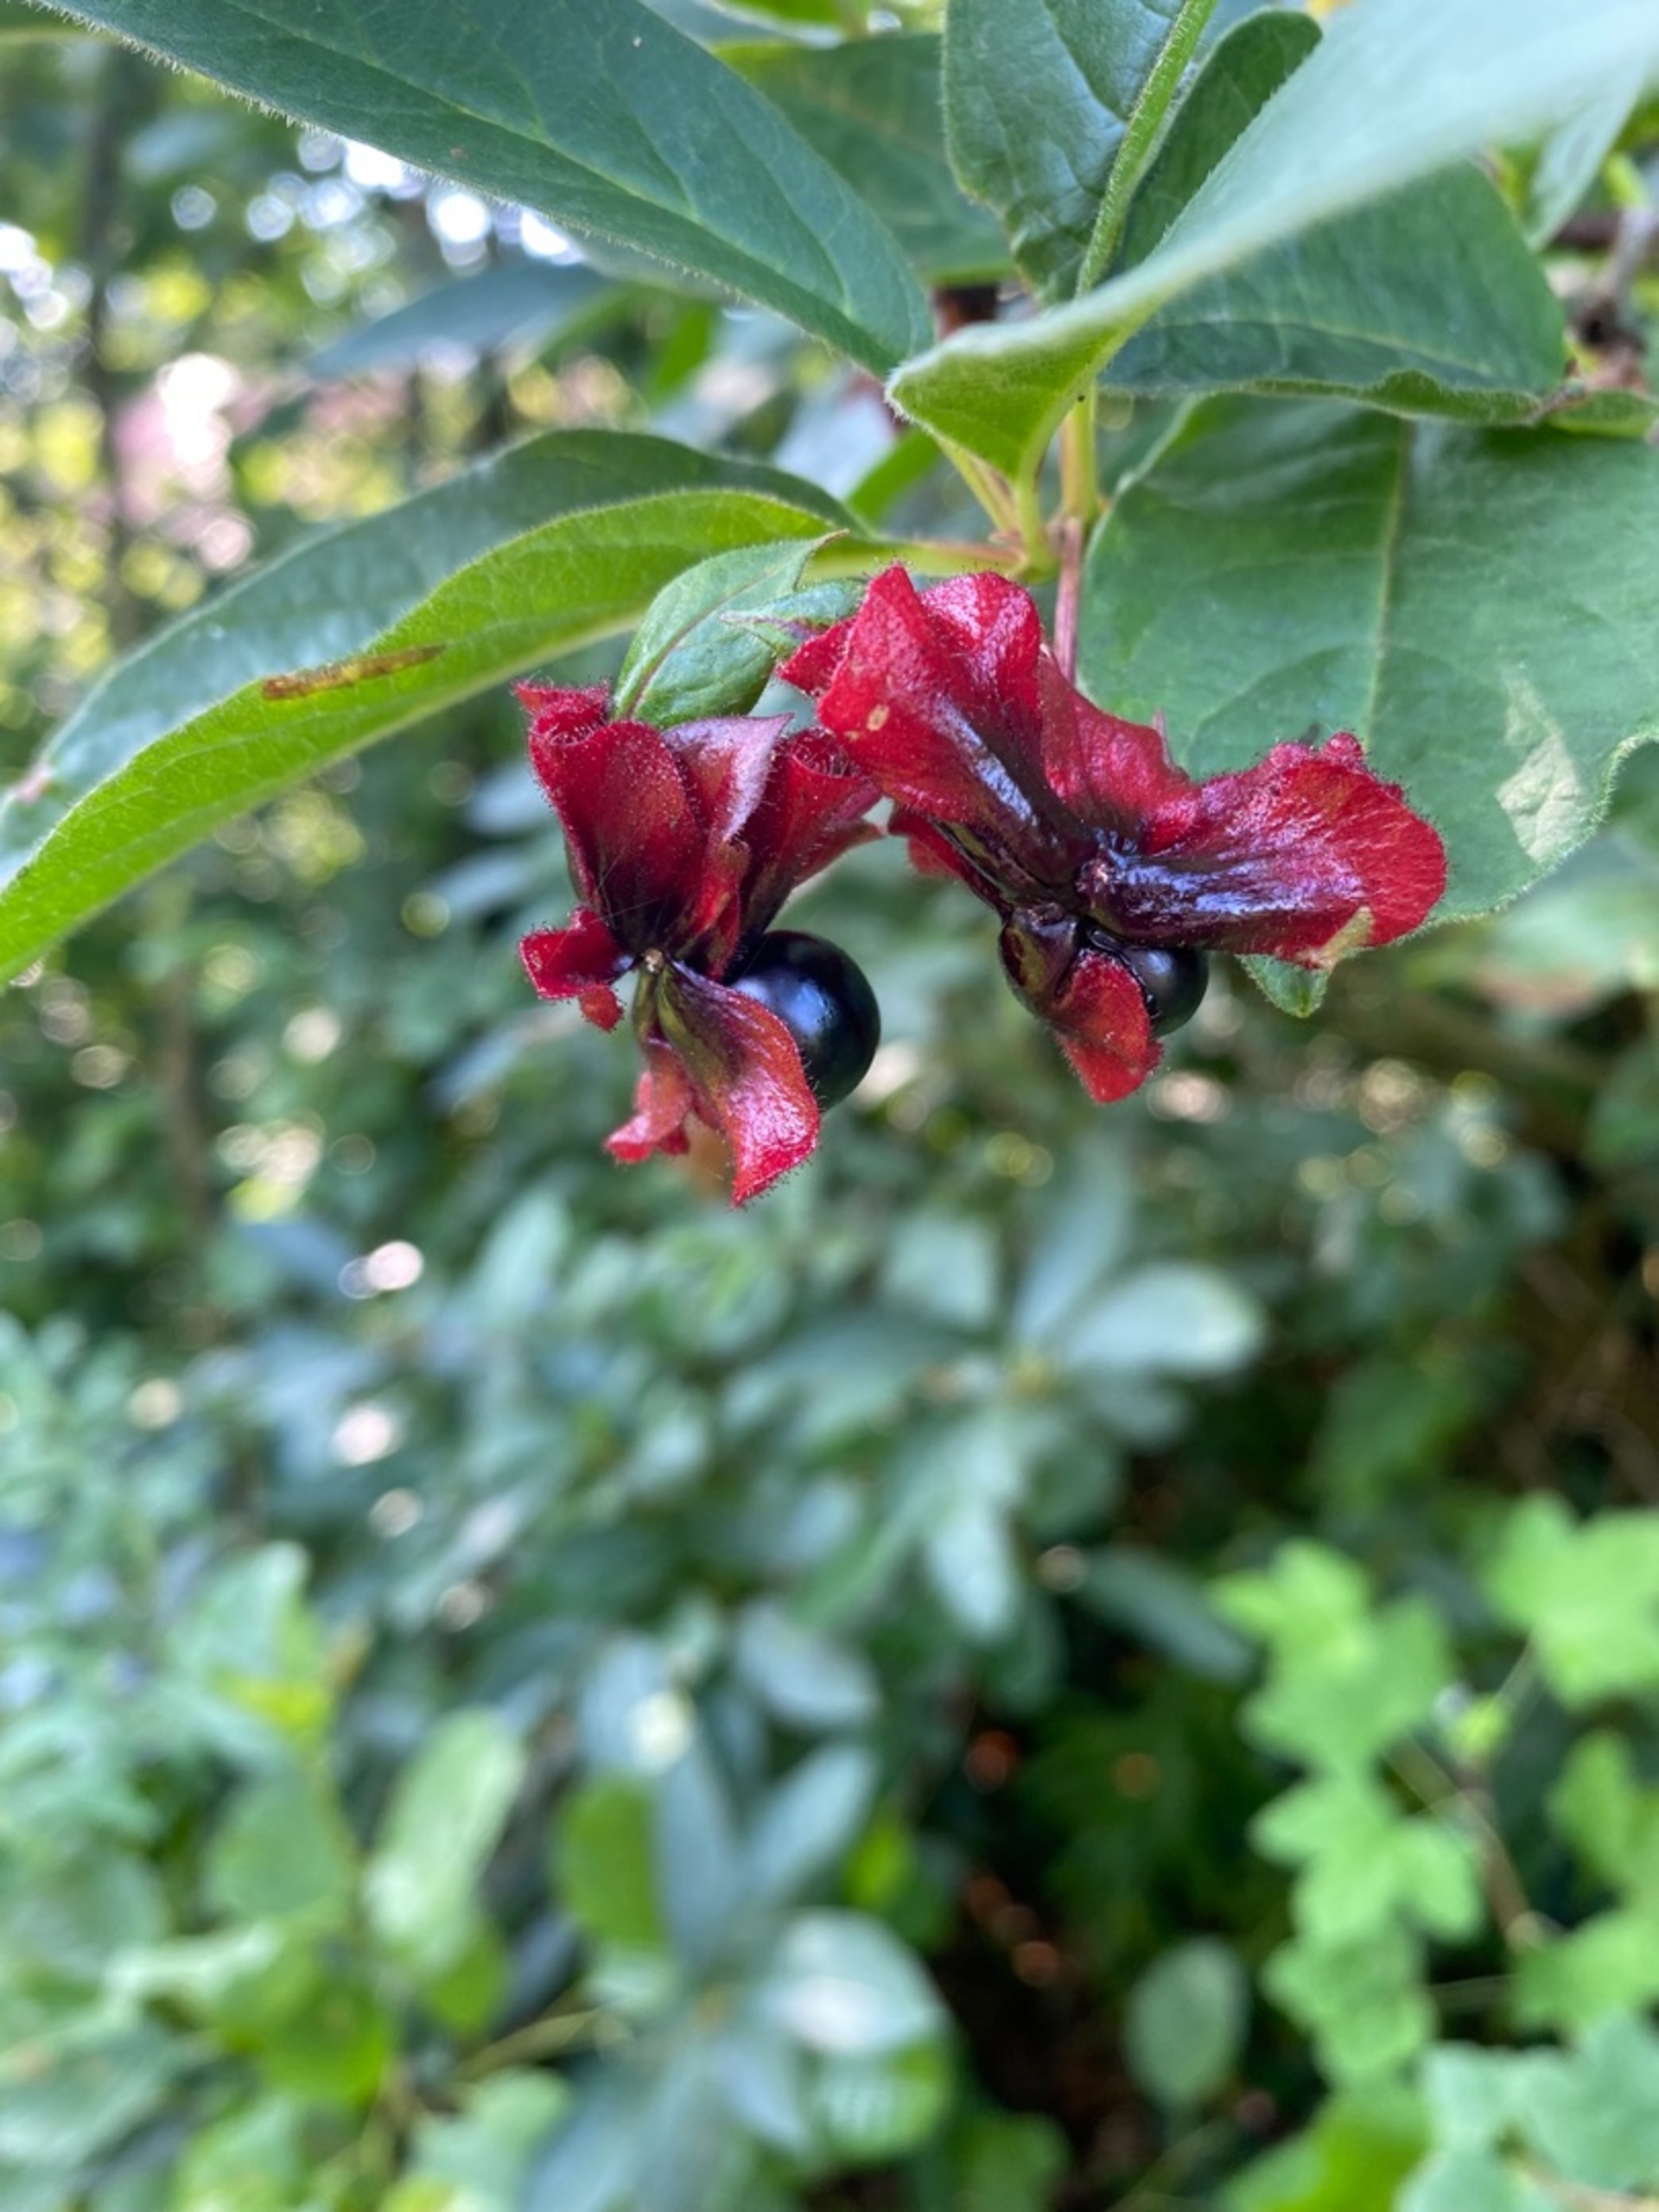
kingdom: Plantae
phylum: Tracheophyta
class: Magnoliopsida
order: Dipsacales
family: Caprifoliaceae
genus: Lonicera
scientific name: Lonicera involucrata
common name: Svøb-gedeblad
